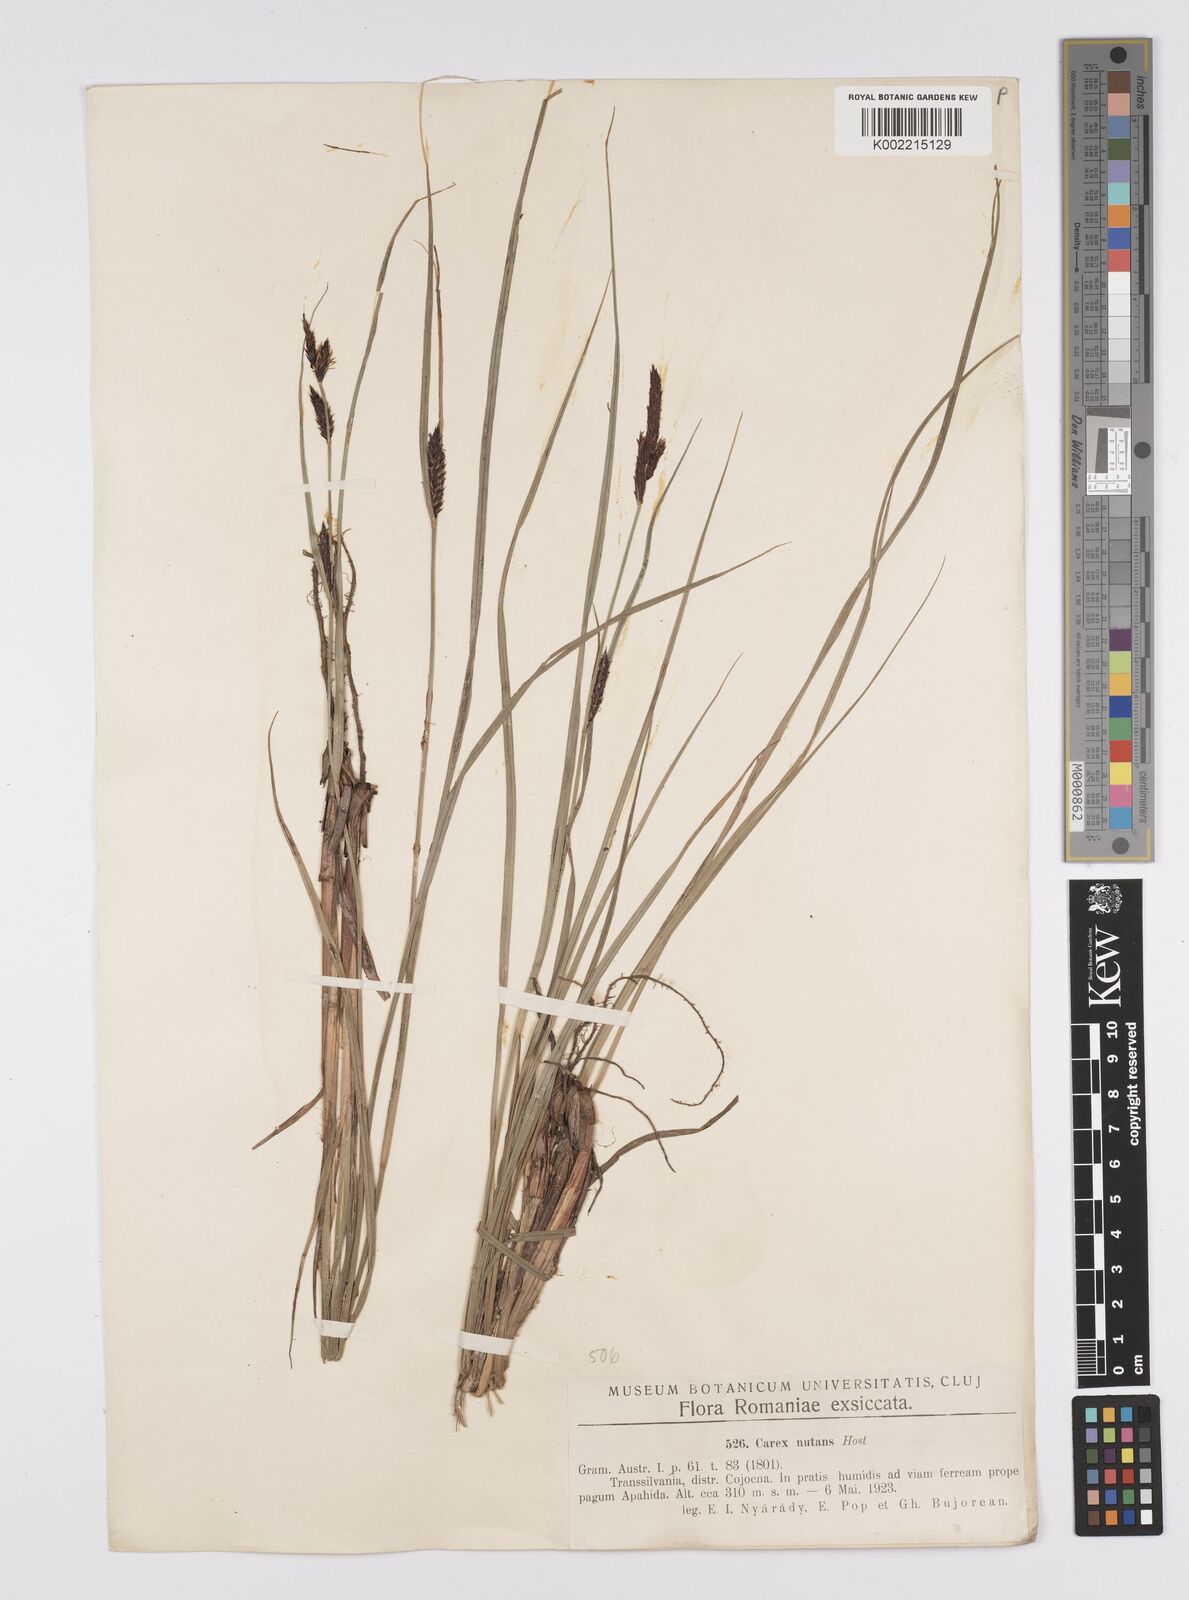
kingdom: Plantae
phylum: Tracheophyta
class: Liliopsida
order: Poales
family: Cyperaceae
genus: Carex
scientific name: Carex melanostachya
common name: Black-spiked sedge
